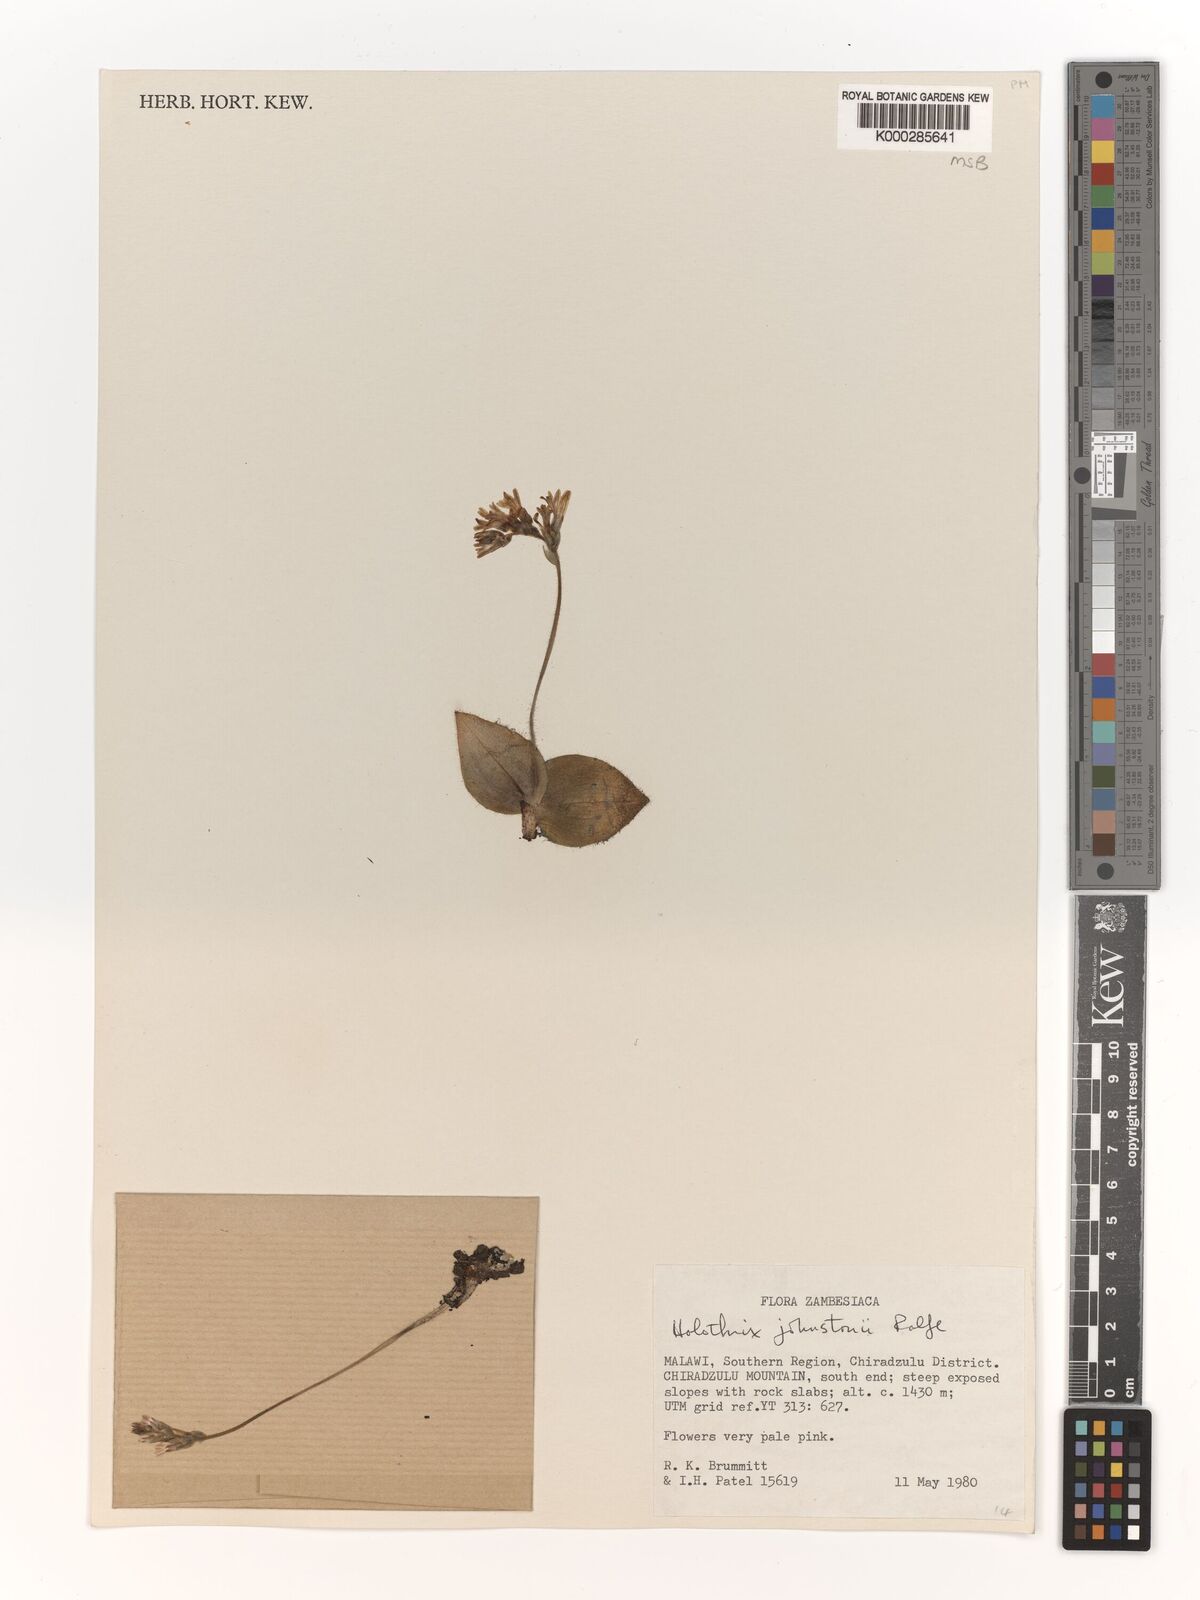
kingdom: Plantae
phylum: Tracheophyta
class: Liliopsida
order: Asparagales
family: Orchidaceae
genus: Holothrix
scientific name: Holothrix johnstonii
